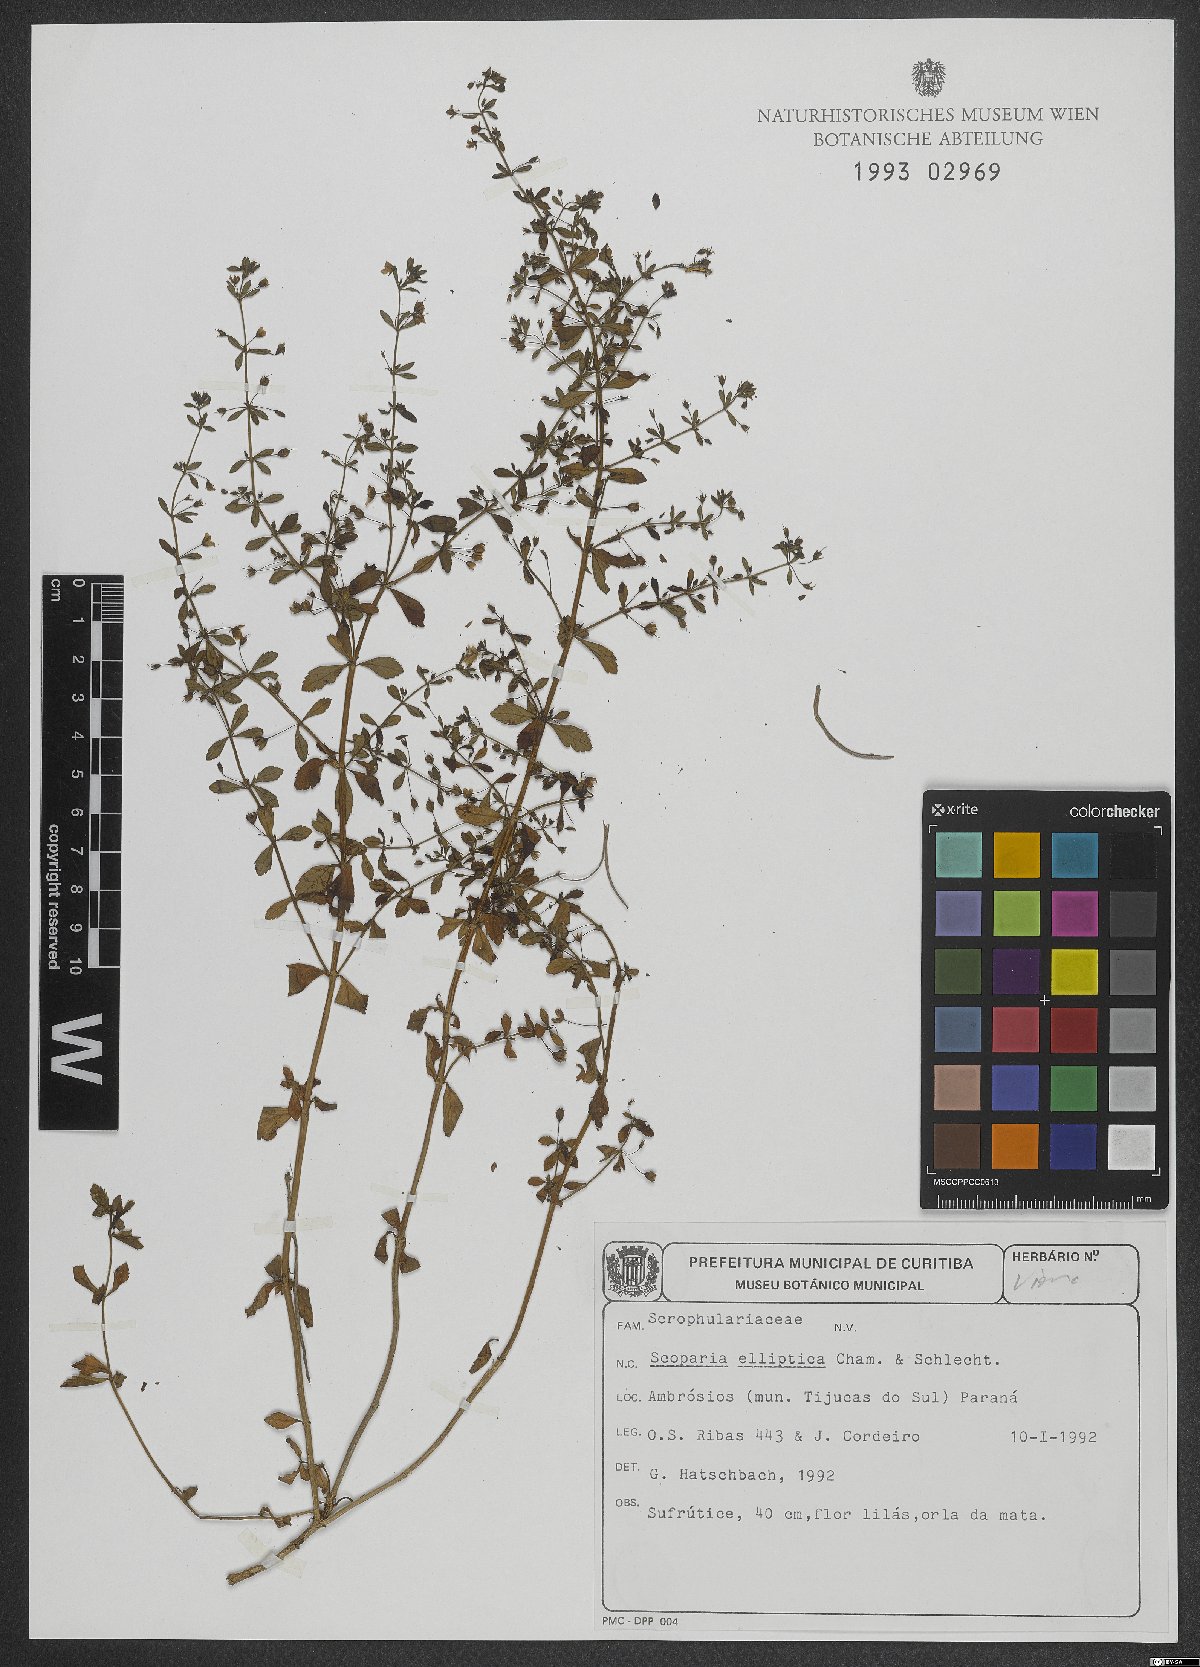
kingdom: Plantae
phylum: Tracheophyta
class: Magnoliopsida
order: Lamiales
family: Plantaginaceae
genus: Scoparia
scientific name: Scoparia elliptica
